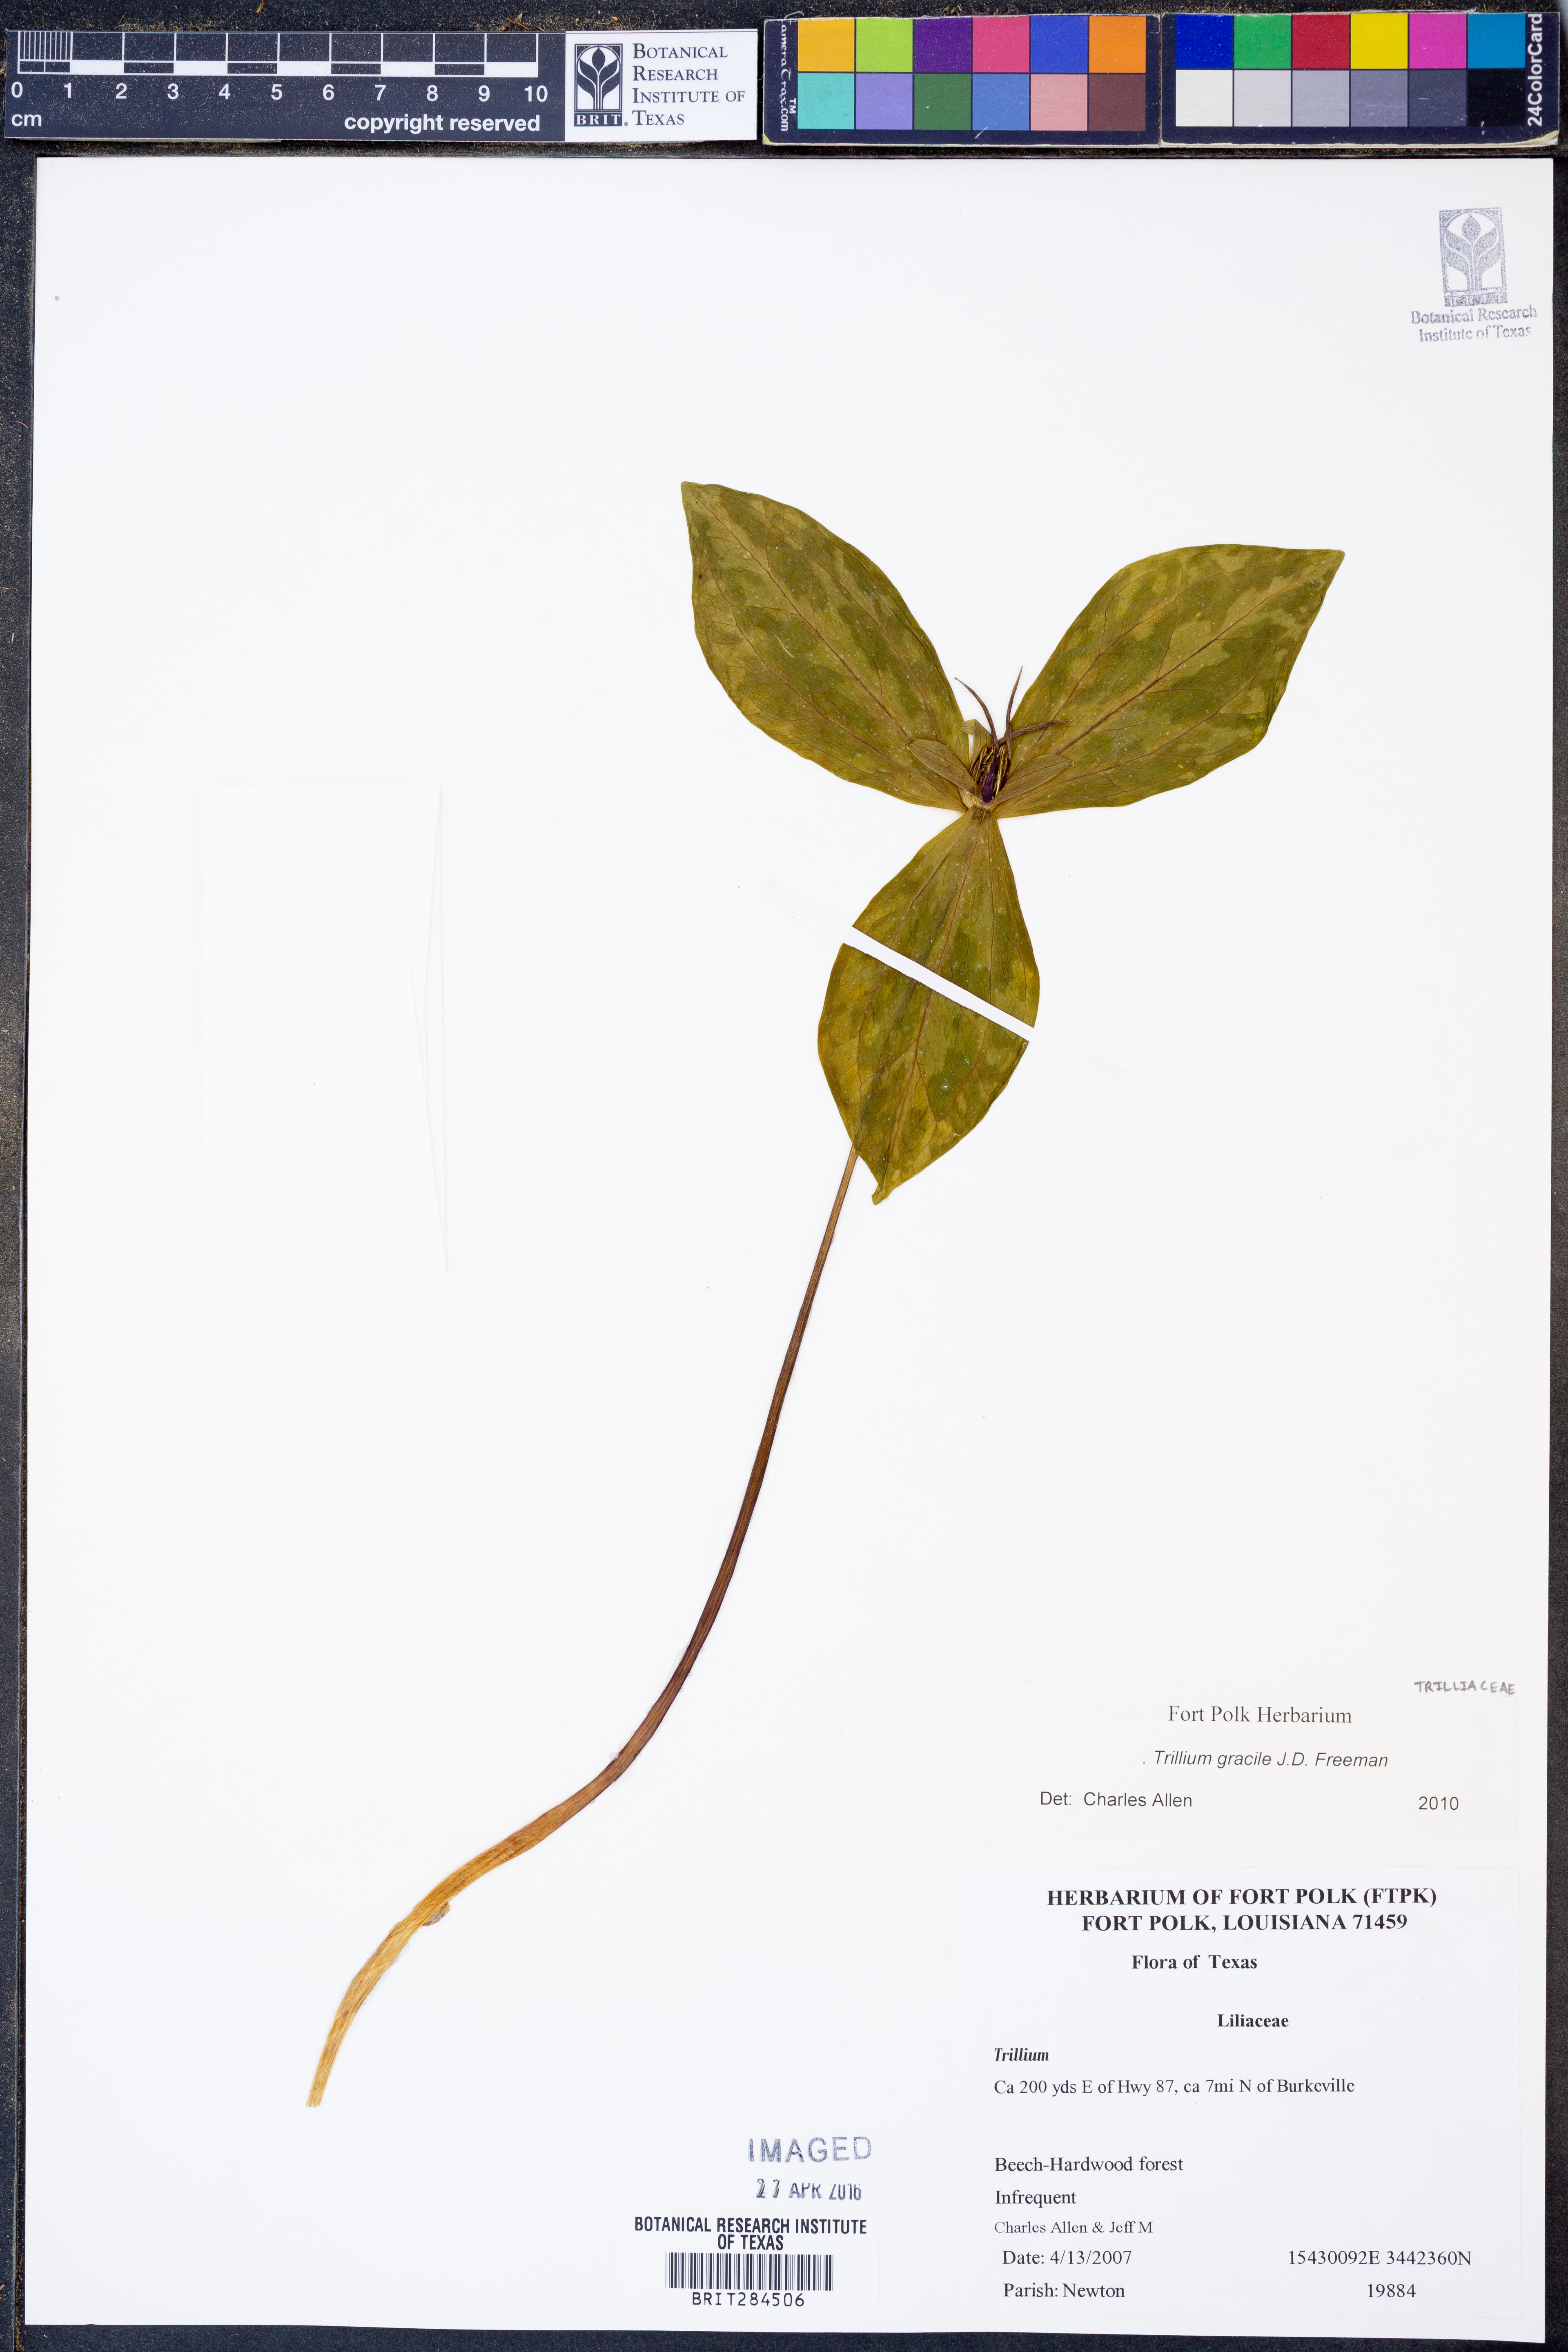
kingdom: Plantae
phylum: Tracheophyta
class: Liliopsida
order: Liliales
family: Melanthiaceae
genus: Trillium
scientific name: Trillium gracile
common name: Graceful trillium
